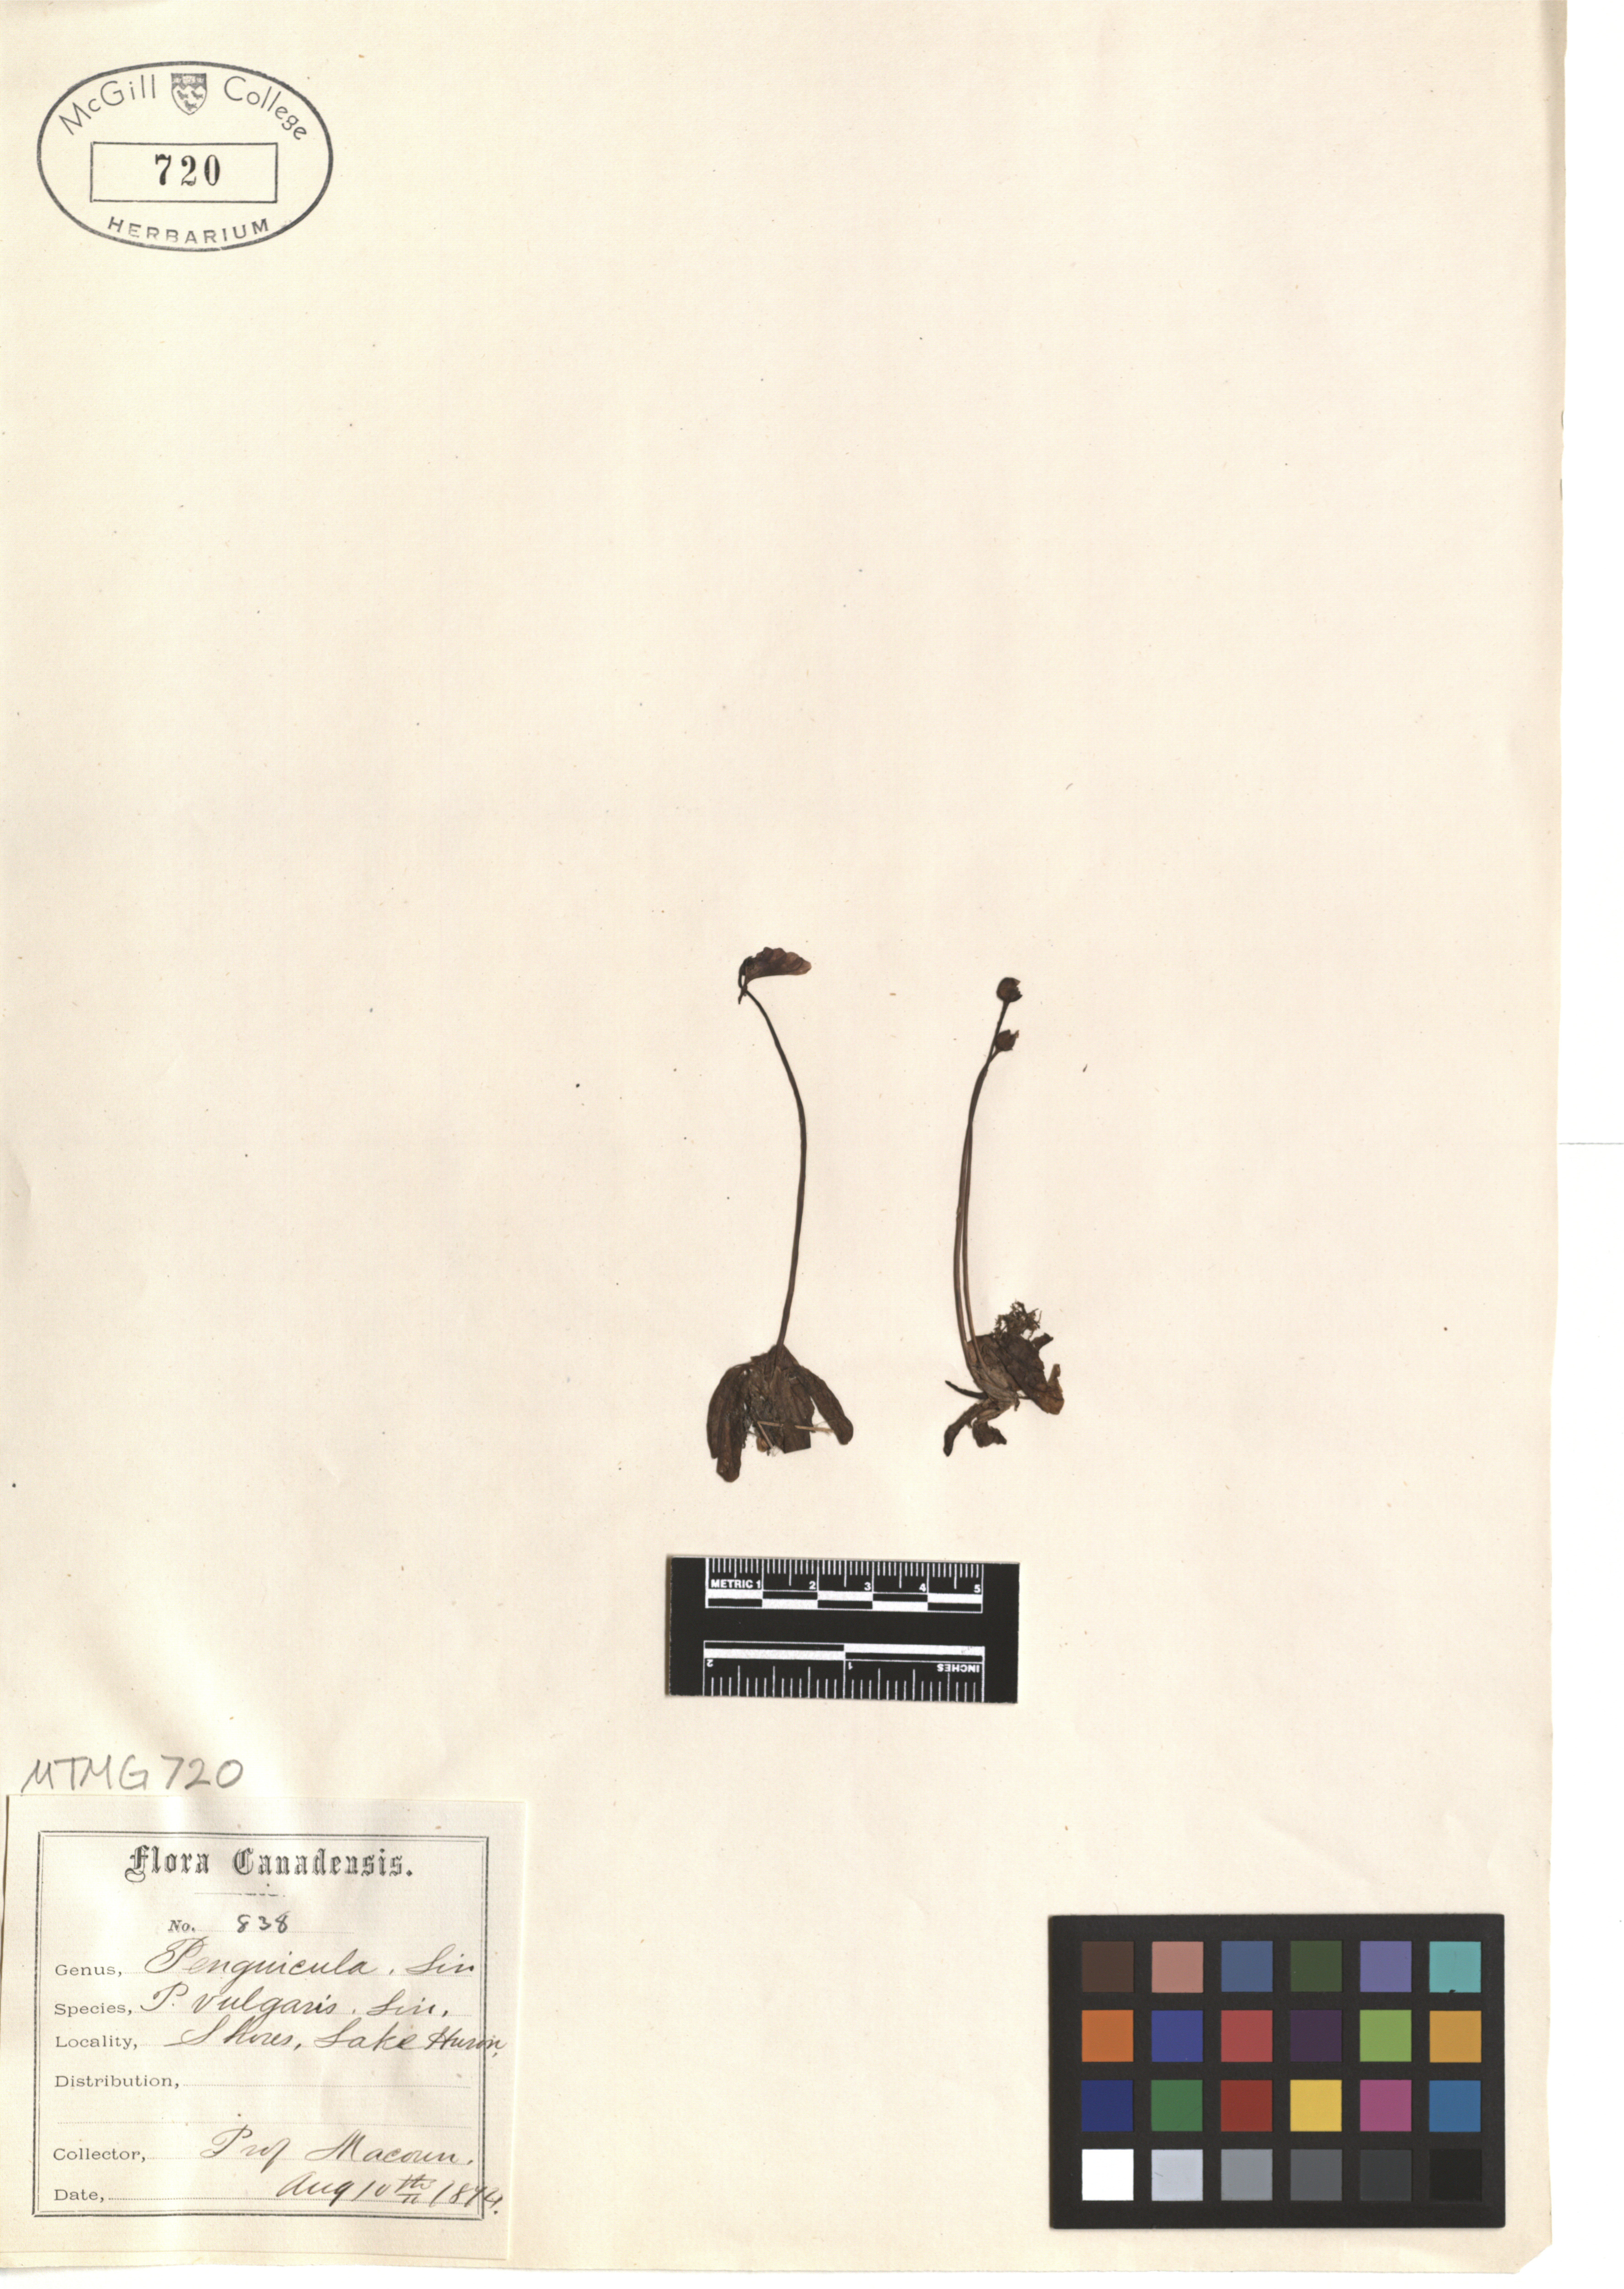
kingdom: Plantae
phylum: Tracheophyta
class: Magnoliopsida
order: Lamiales
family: Lentibulariaceae
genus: Pinguicula
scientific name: Pinguicula vulgaris
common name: Common butterwort
